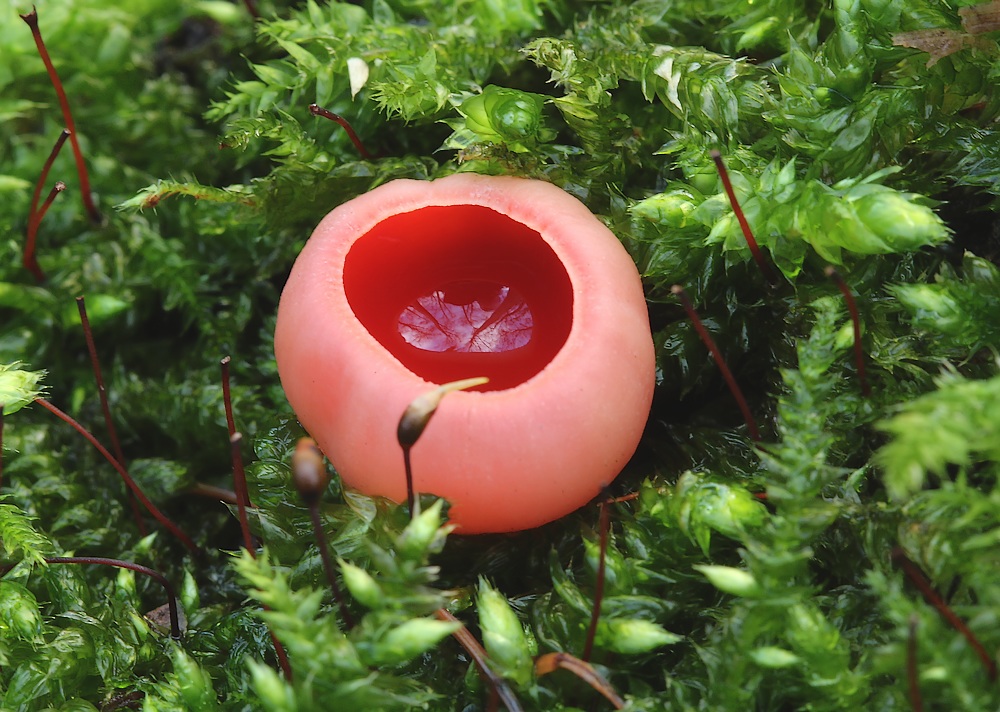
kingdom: Fungi
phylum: Ascomycota
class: Pezizomycetes
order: Pezizales
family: Sarcoscyphaceae
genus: Sarcoscypha
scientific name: Sarcoscypha austriaca
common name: krølhåret pragtbæger
